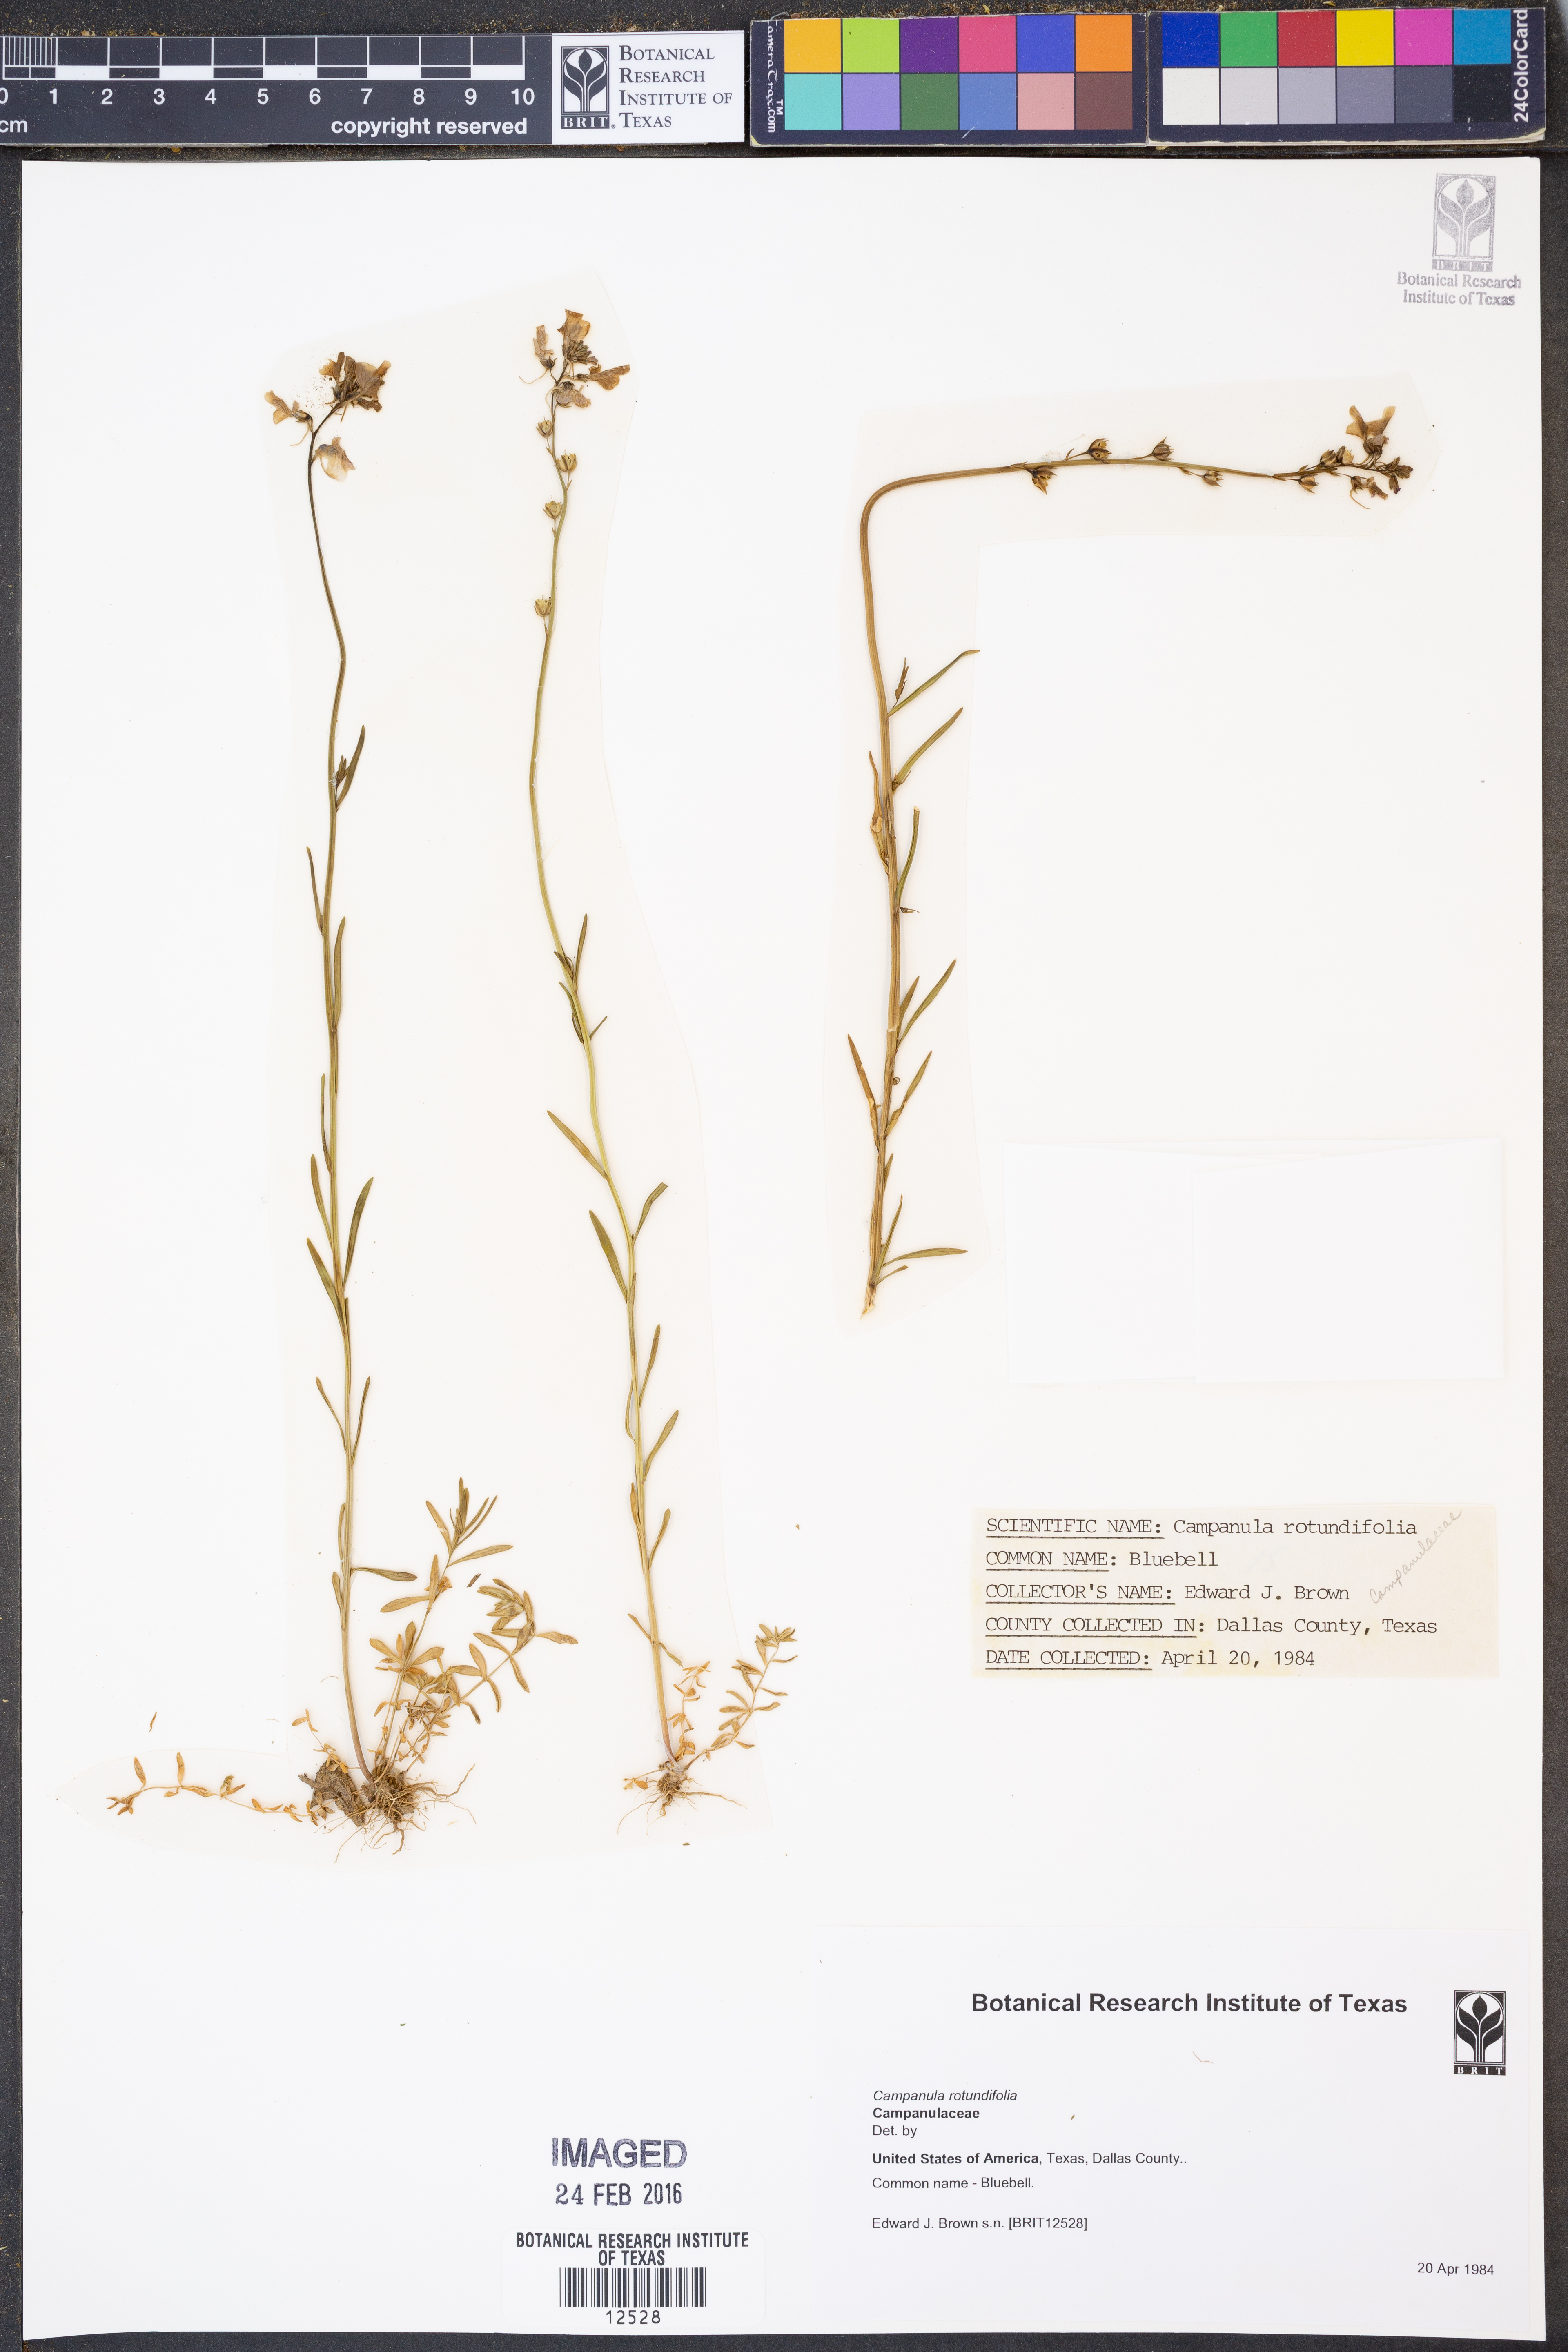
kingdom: Plantae
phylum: Tracheophyta
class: Magnoliopsida
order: Asterales
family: Campanulaceae
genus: Lobelia
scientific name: Lobelia
